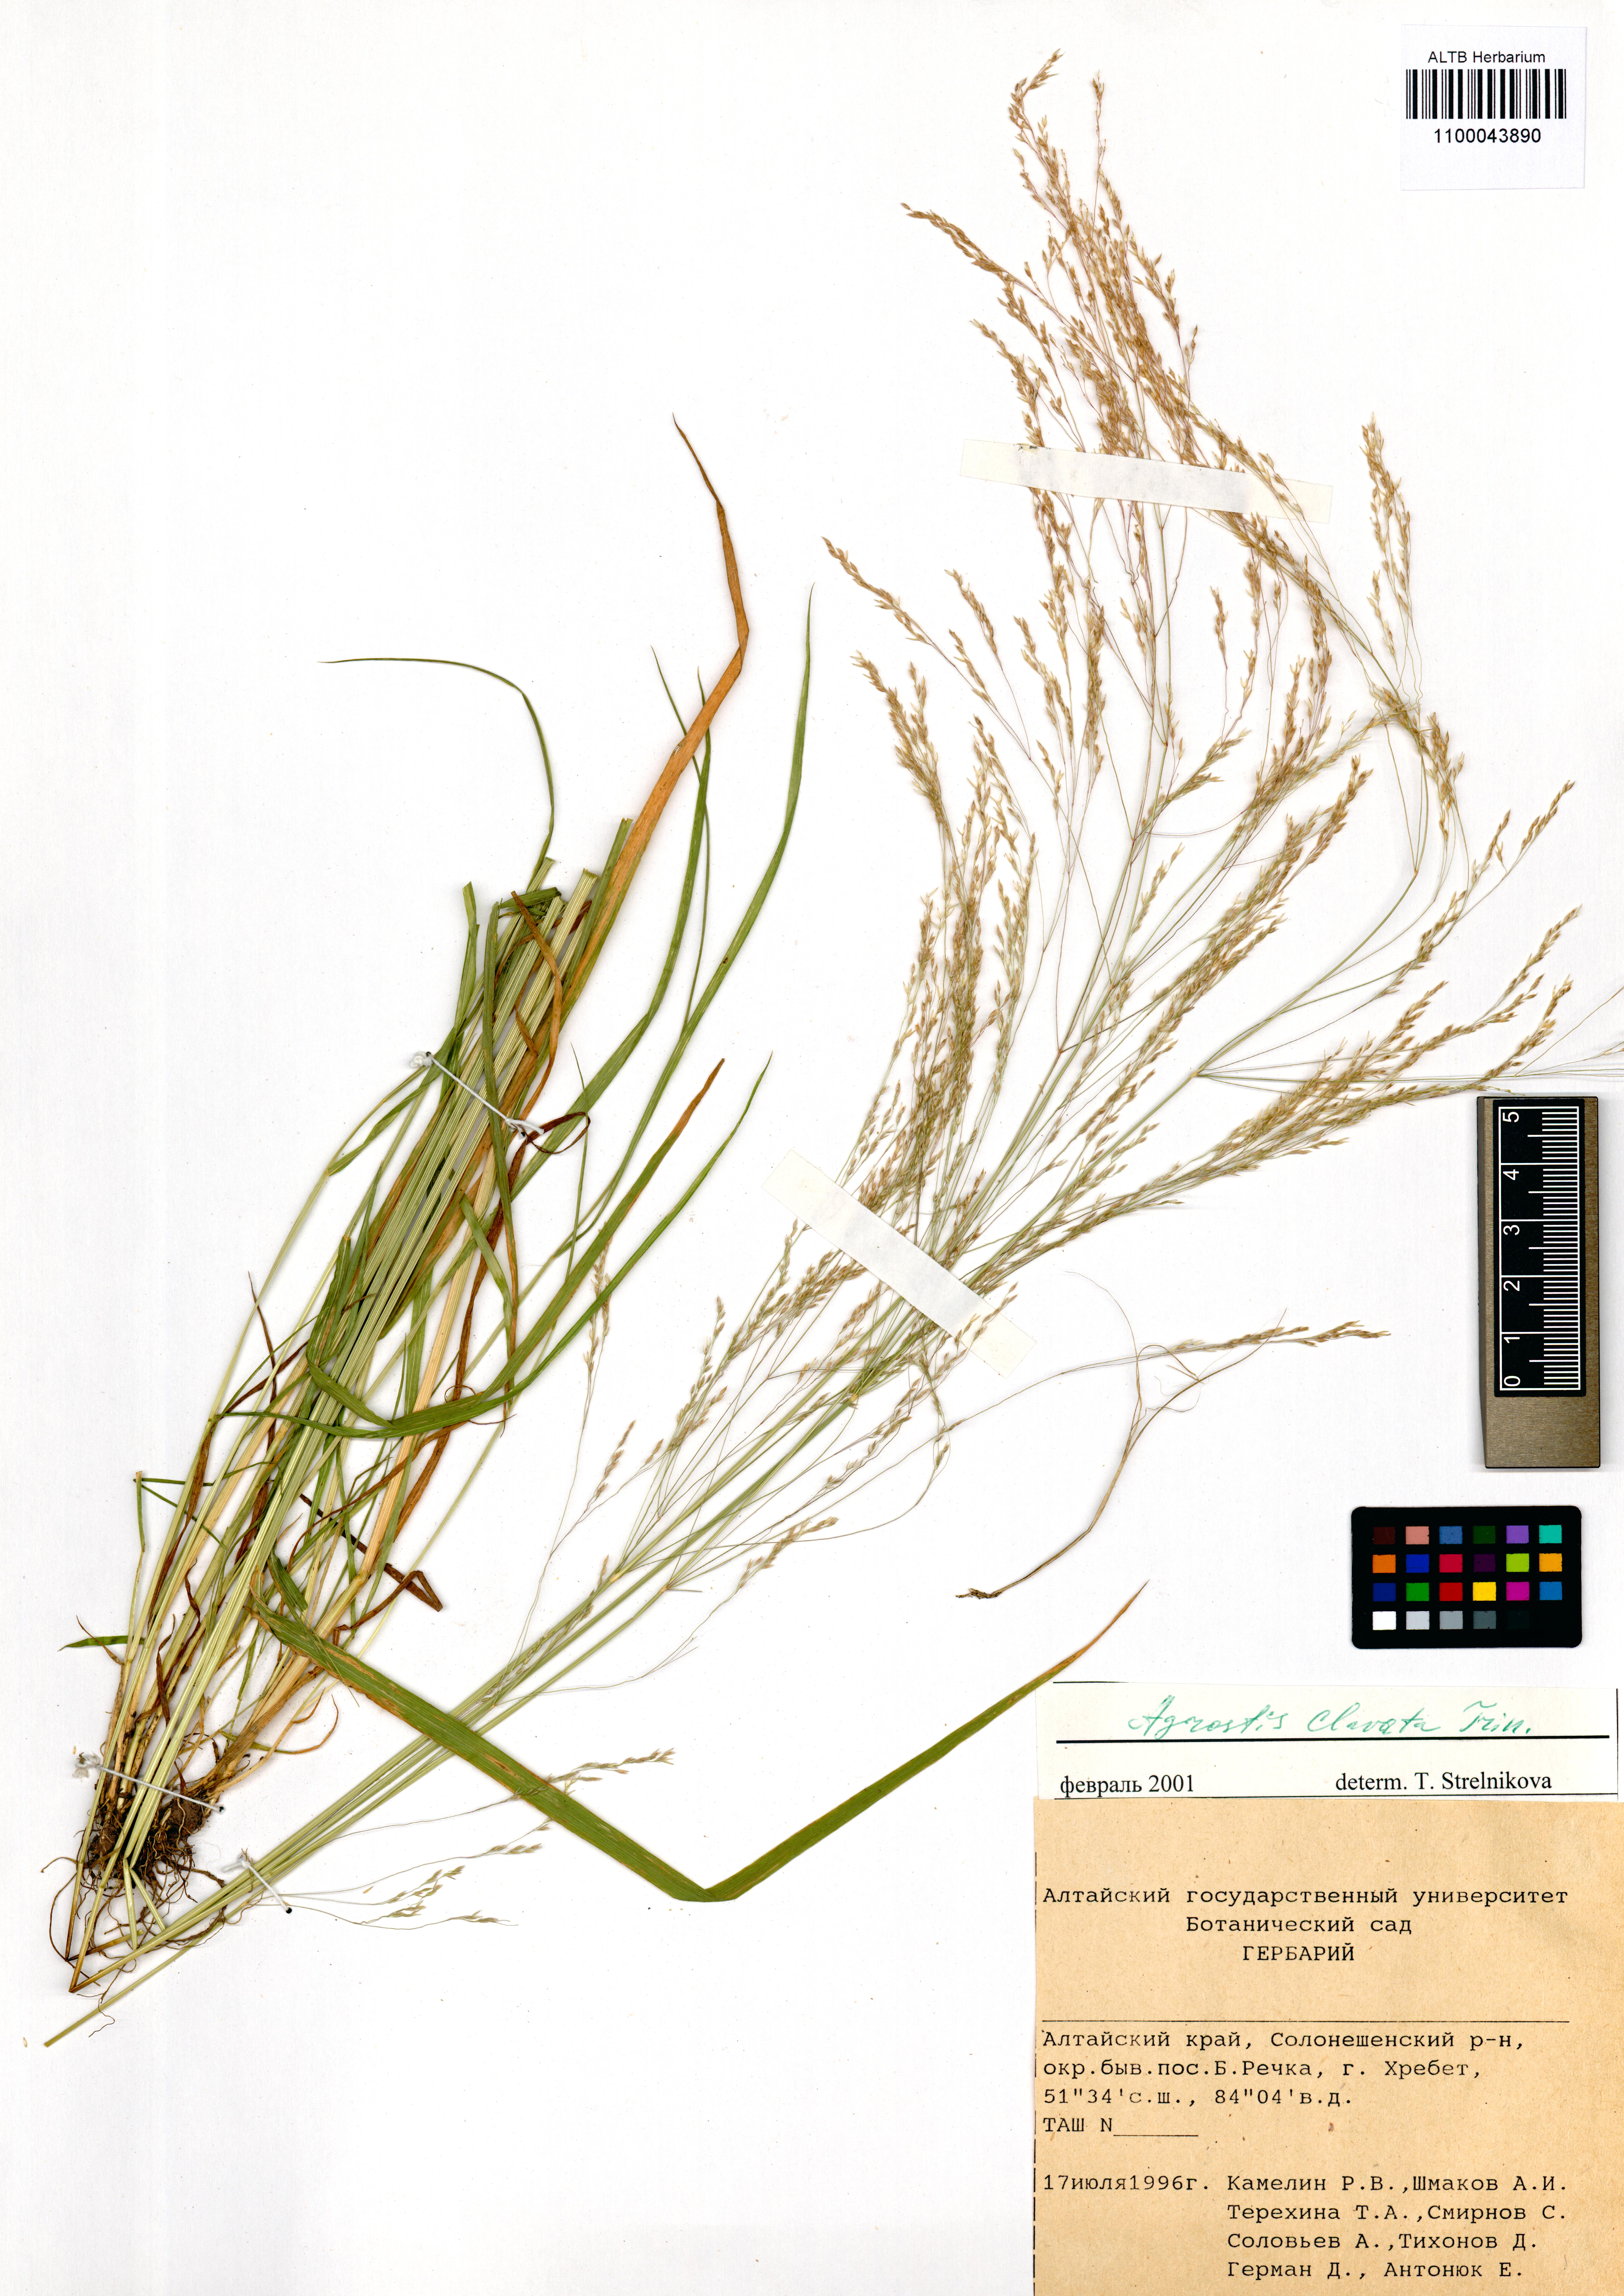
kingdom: Plantae
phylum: Tracheophyta
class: Liliopsida
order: Poales
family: Poaceae
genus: Agrostis
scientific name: Agrostis clavata
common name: Clavate bent
